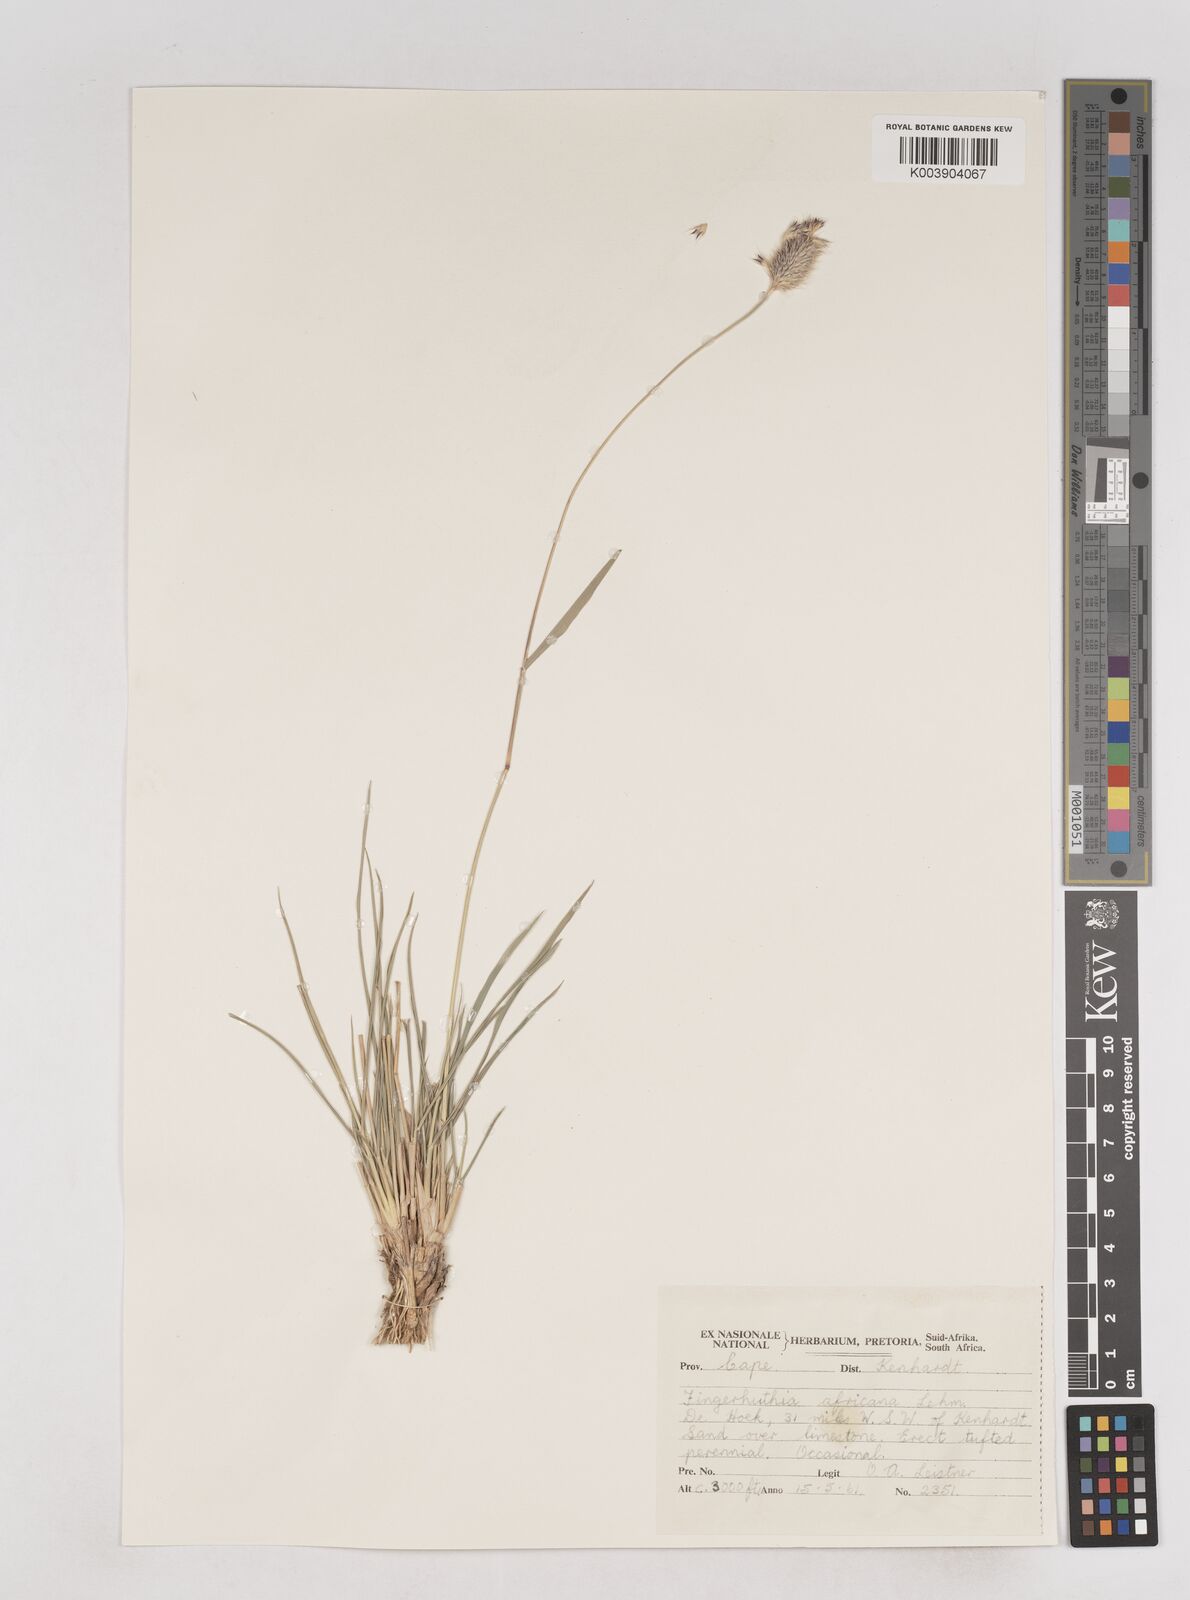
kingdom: Plantae
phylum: Tracheophyta
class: Liliopsida
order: Poales
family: Poaceae
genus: Fingerhuthia
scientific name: Fingerhuthia africana
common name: Zulu fescue
